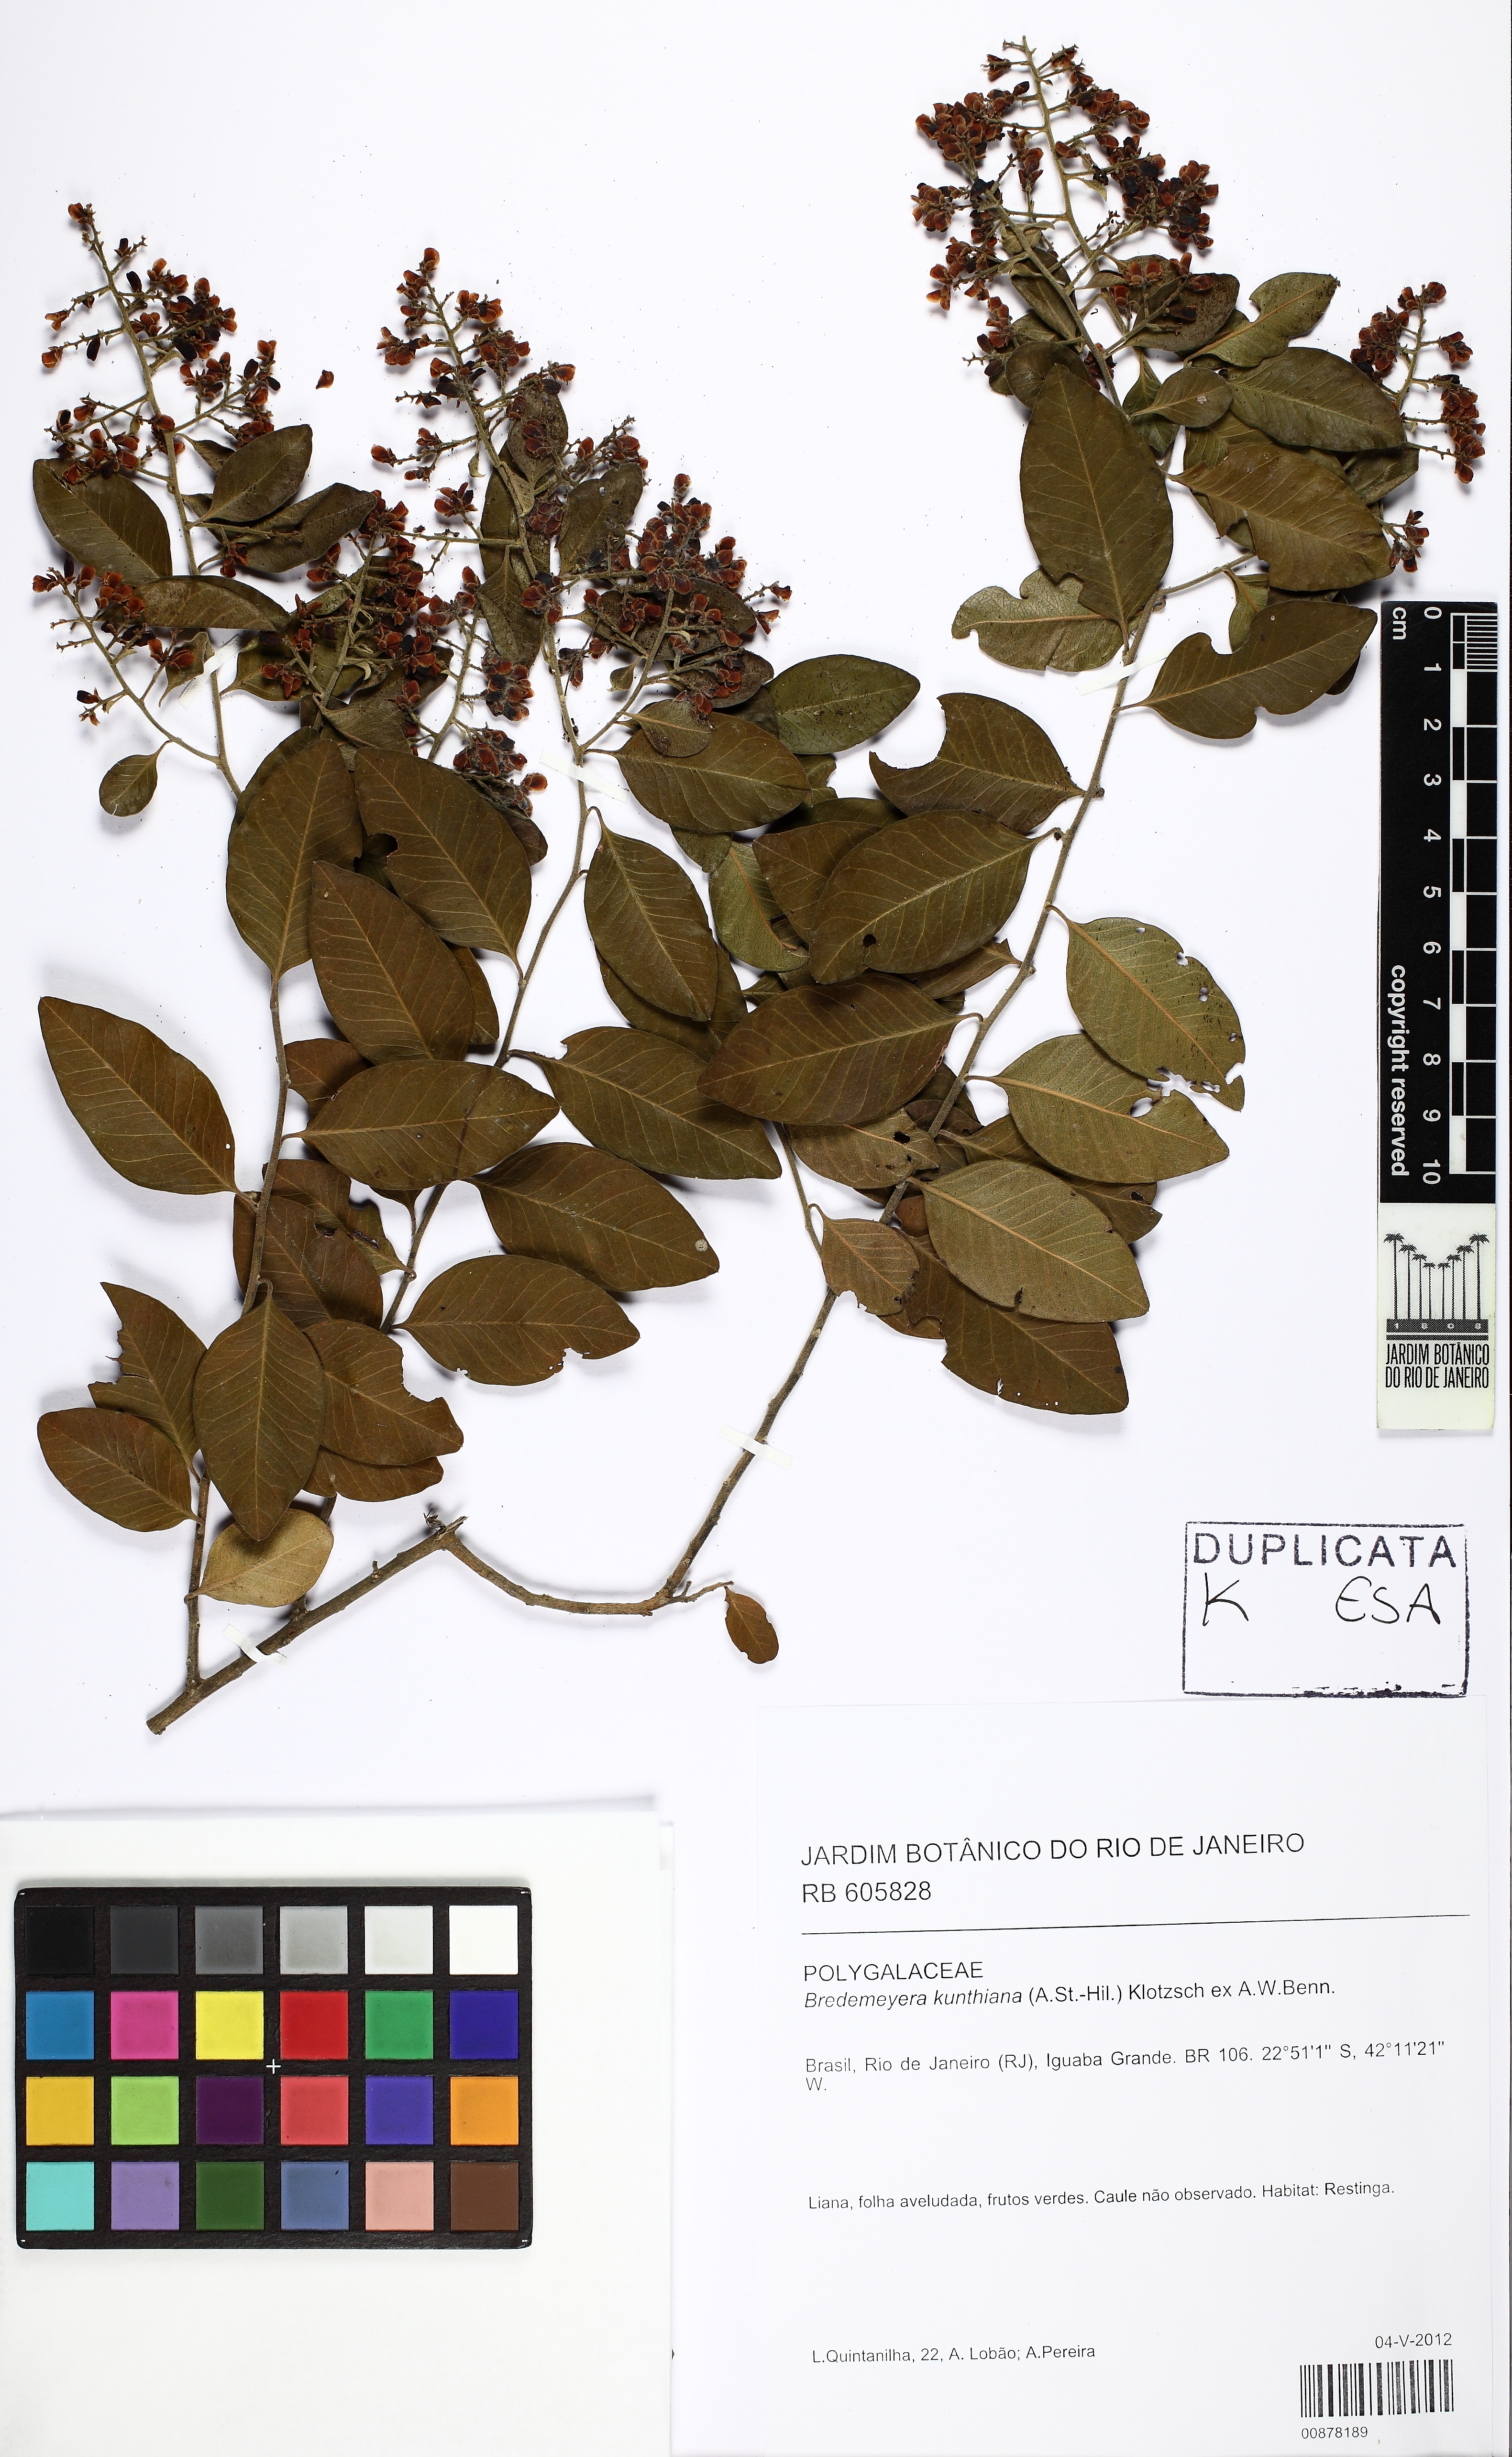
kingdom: Plantae
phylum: Tracheophyta
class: Magnoliopsida
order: Fabales
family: Polygalaceae
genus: Bredemeyera
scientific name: Bredemeyera hebeclada
